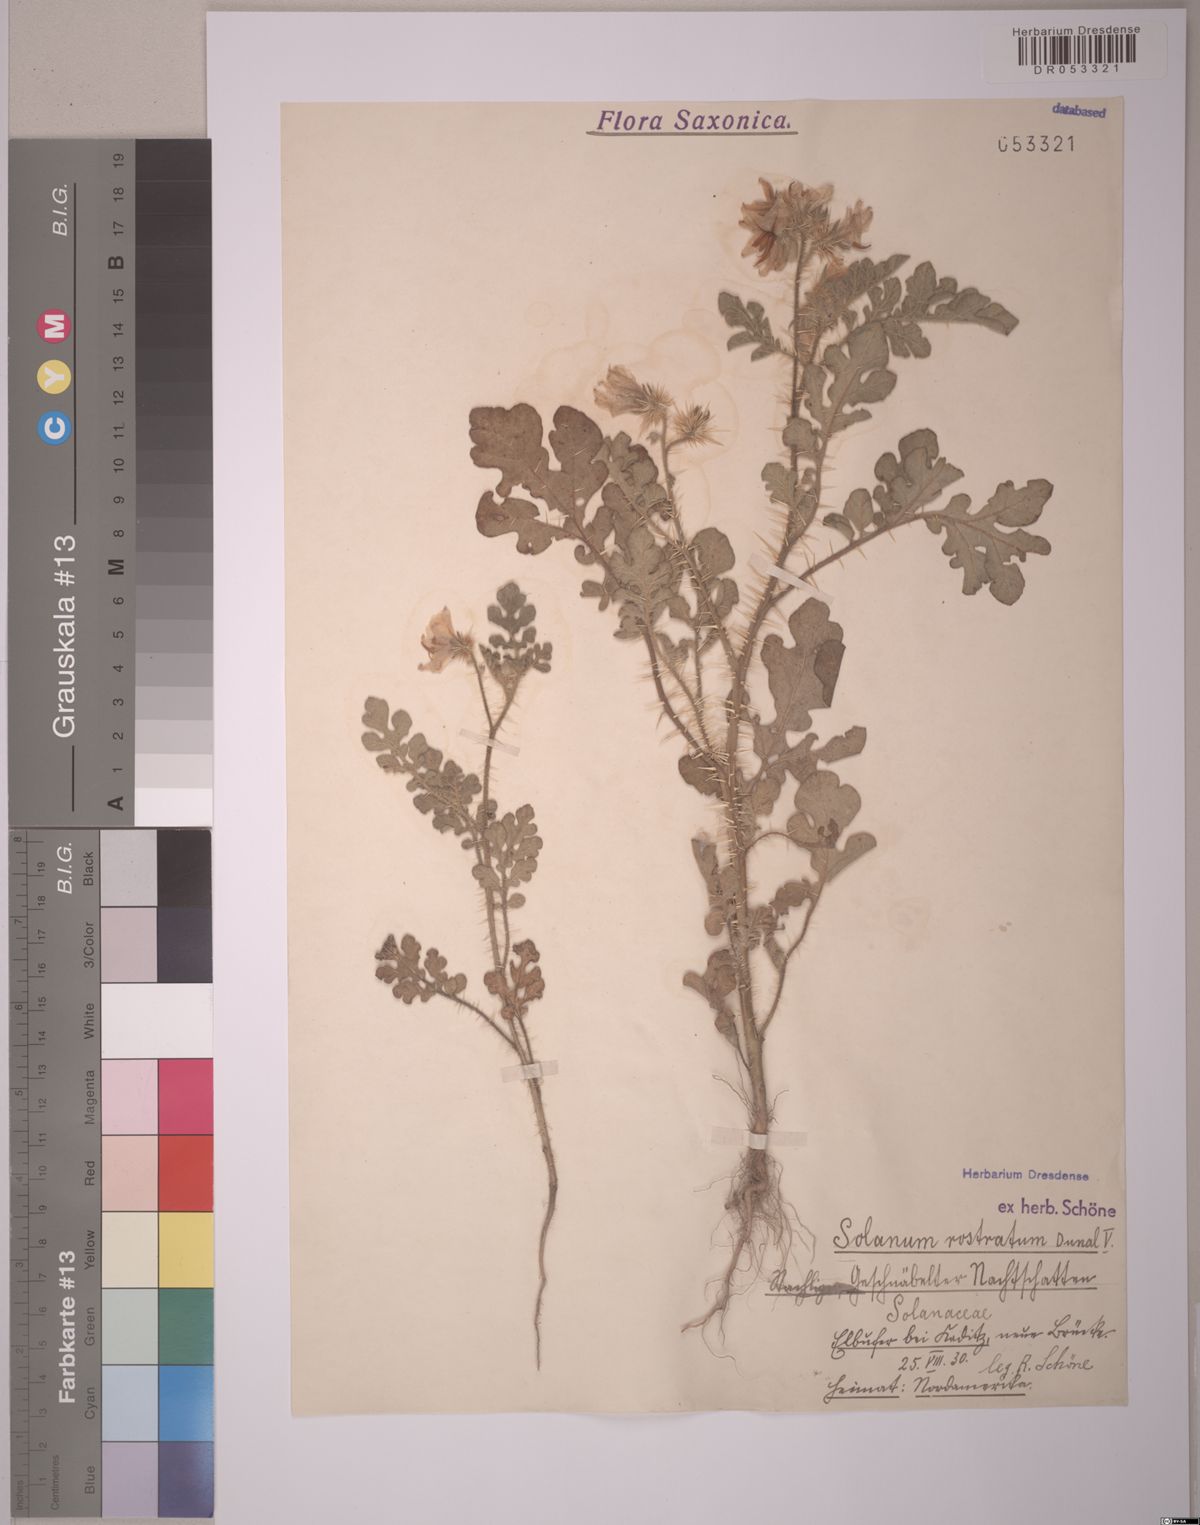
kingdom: Plantae
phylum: Tracheophyta
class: Magnoliopsida
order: Solanales
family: Solanaceae
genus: Solanum
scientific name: Solanum angustifolium
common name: Buffalobur nightshade
